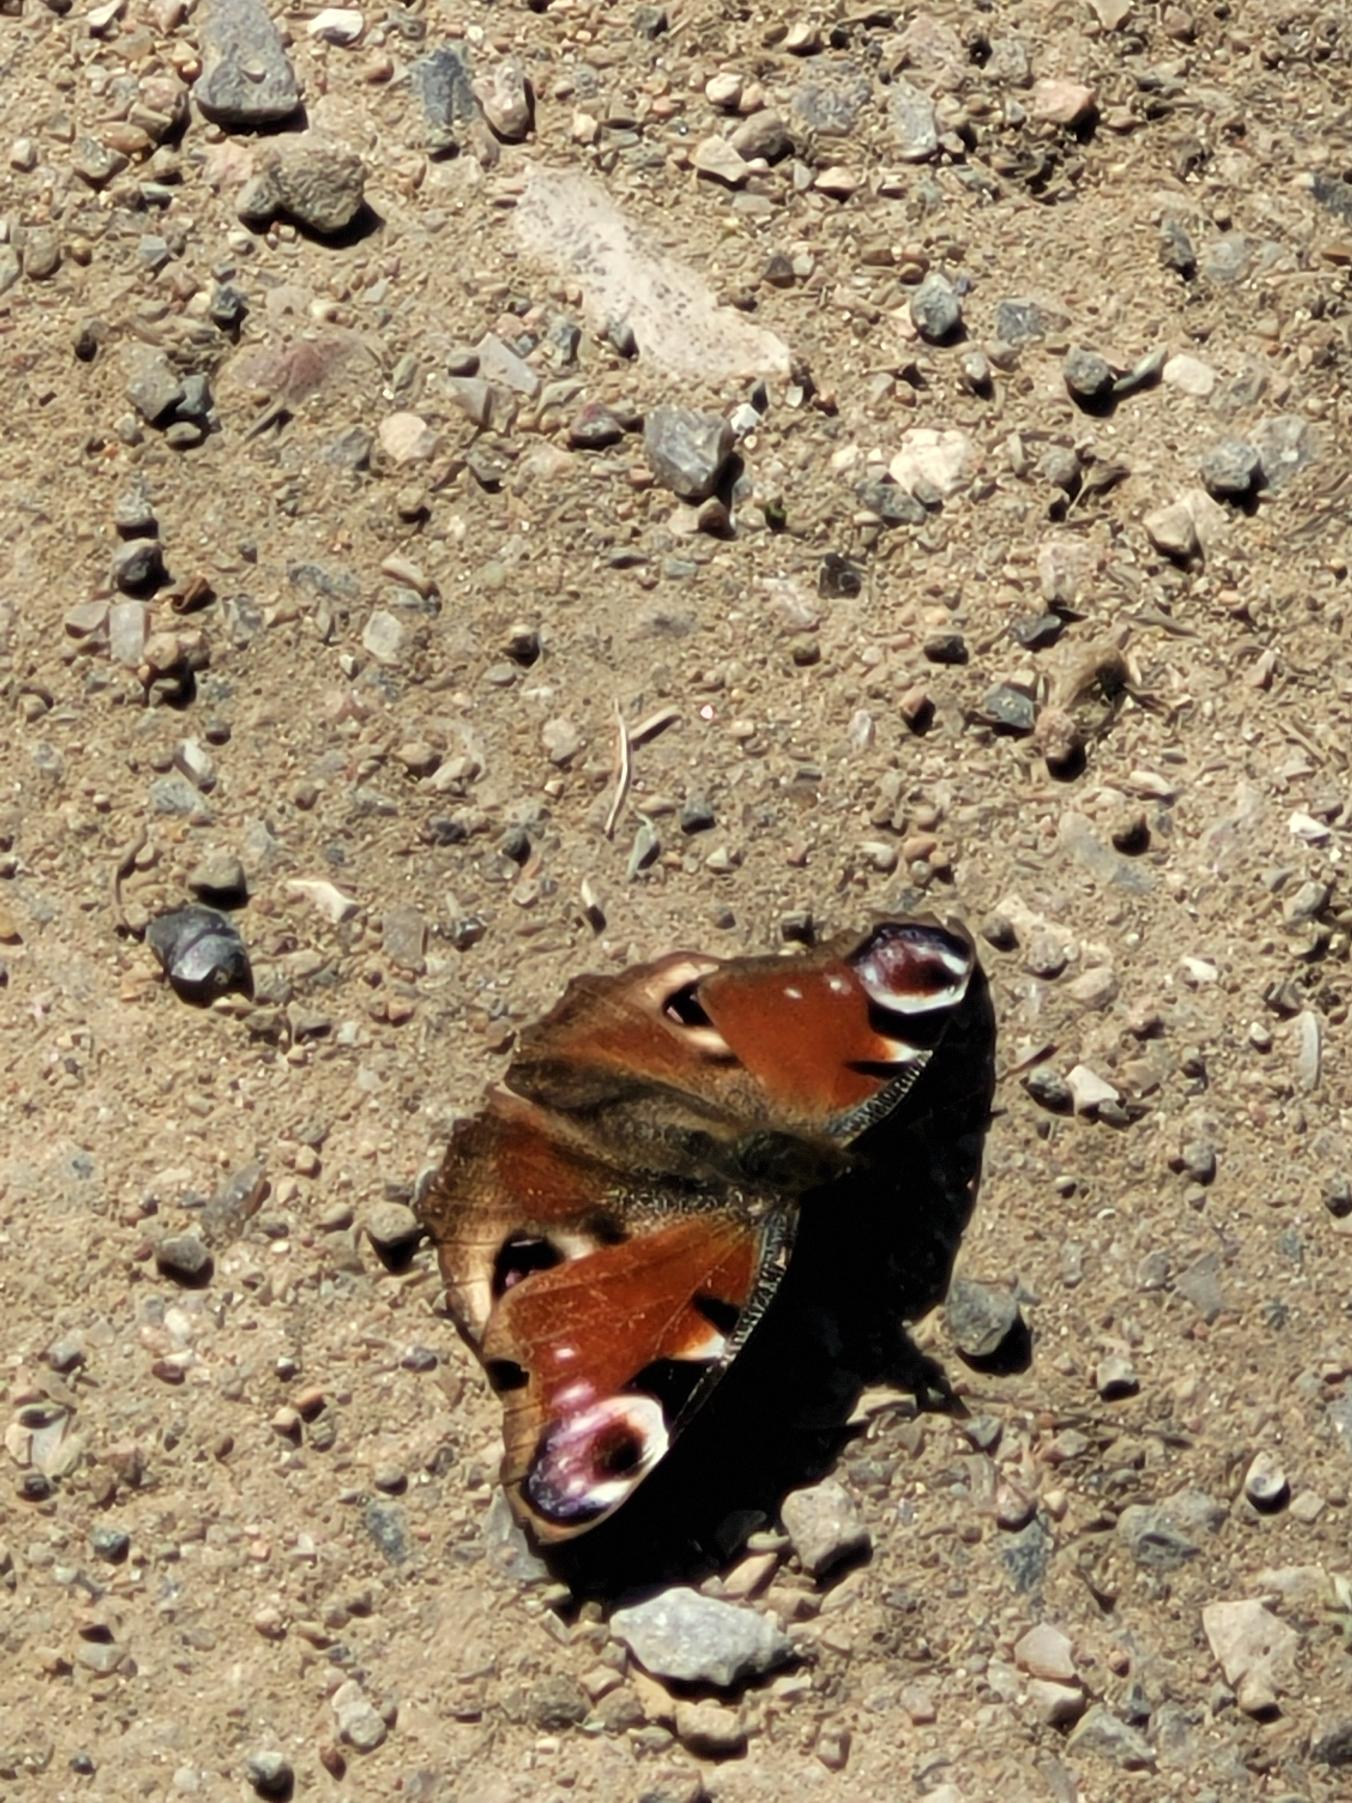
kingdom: Animalia
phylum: Arthropoda
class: Insecta
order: Lepidoptera
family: Nymphalidae
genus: Aglais
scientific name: Aglais io
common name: Dagpåfugleøje
